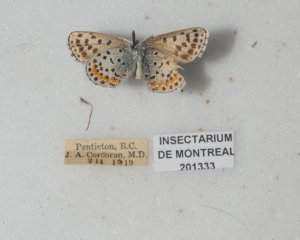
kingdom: Animalia
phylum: Arthropoda
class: Insecta
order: Lepidoptera
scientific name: Lepidoptera
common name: Butterflies
